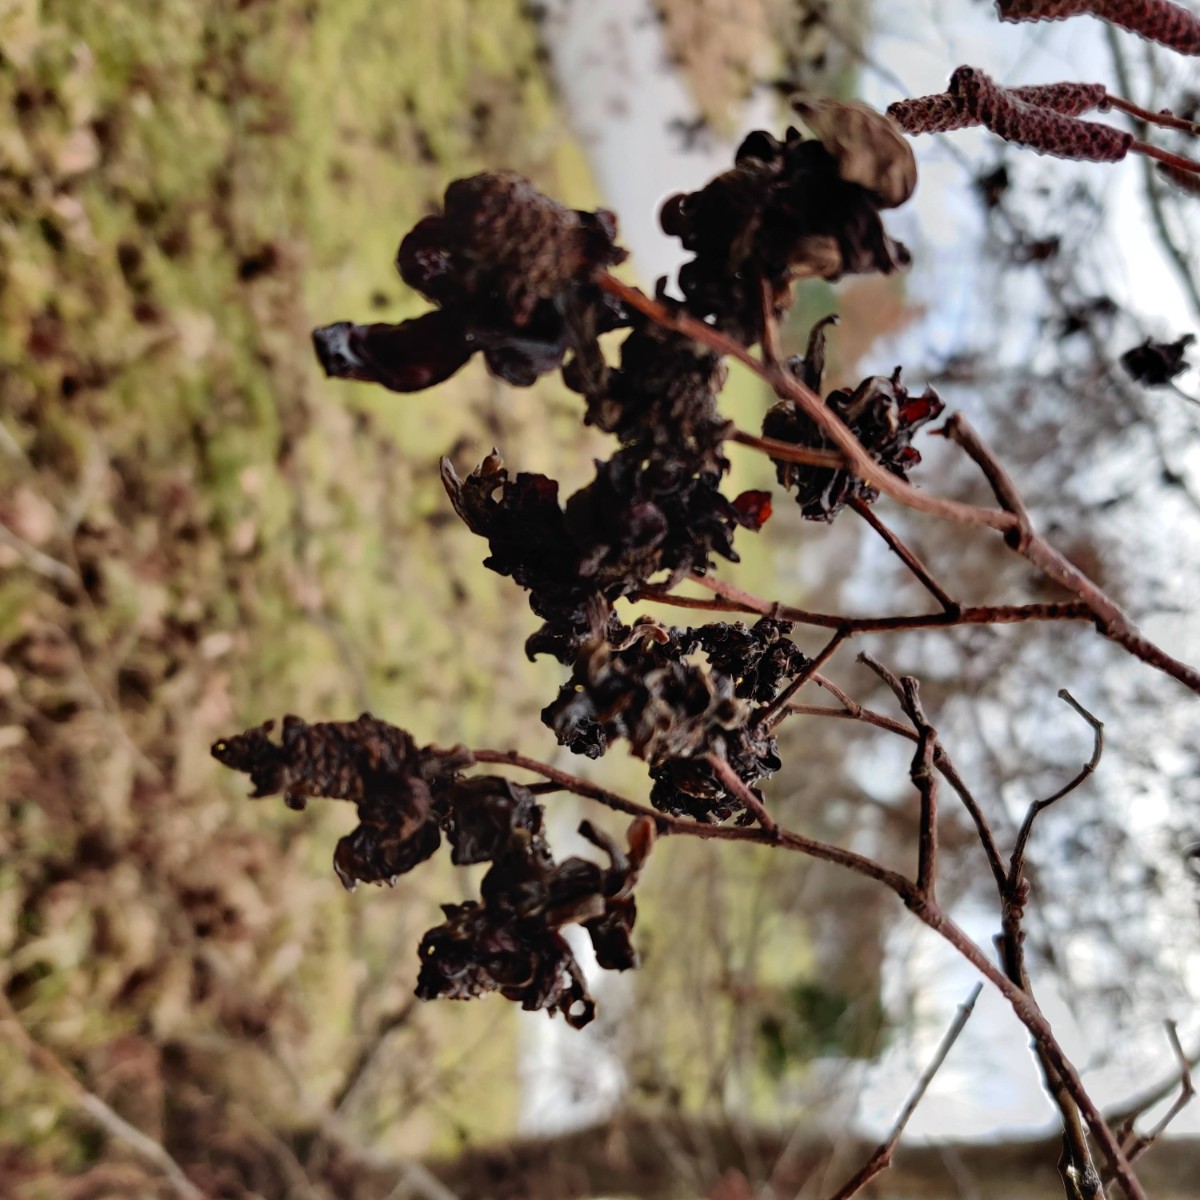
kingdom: Fungi
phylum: Ascomycota
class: Taphrinomycetes
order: Taphrinales
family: Taphrinaceae
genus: Taphrina
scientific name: Taphrina alni
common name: Alder tongue
